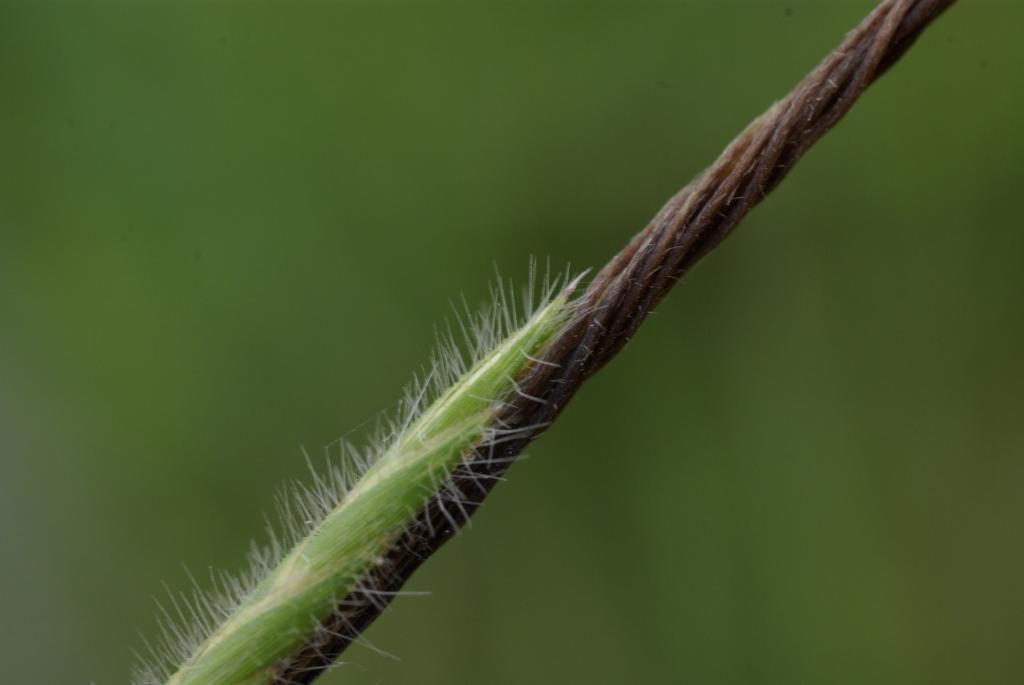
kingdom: Plantae
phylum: Tracheophyta
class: Liliopsida
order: Poales
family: Poaceae
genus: Heteropogon
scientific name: Heteropogon contortus
